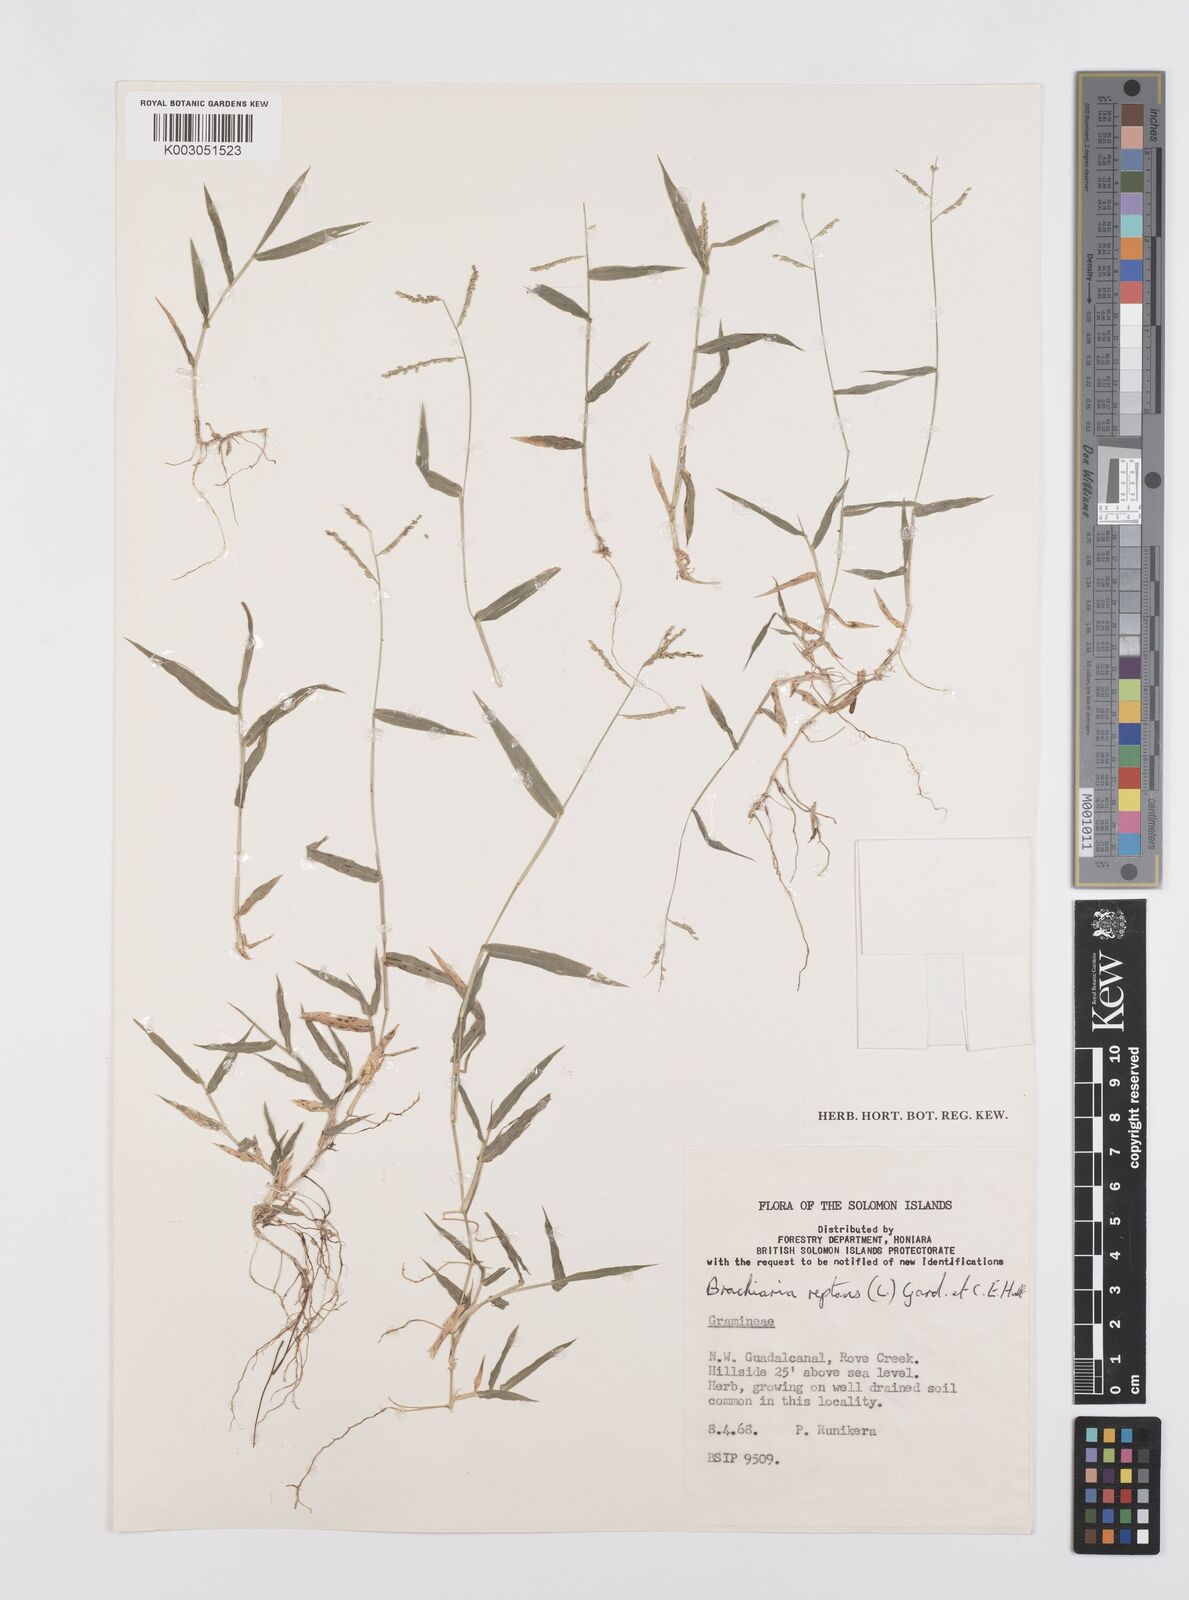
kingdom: Plantae
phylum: Tracheophyta
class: Liliopsida
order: Poales
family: Poaceae
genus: Urochloa
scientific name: Urochloa reptans
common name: Sprawling signalgrass
